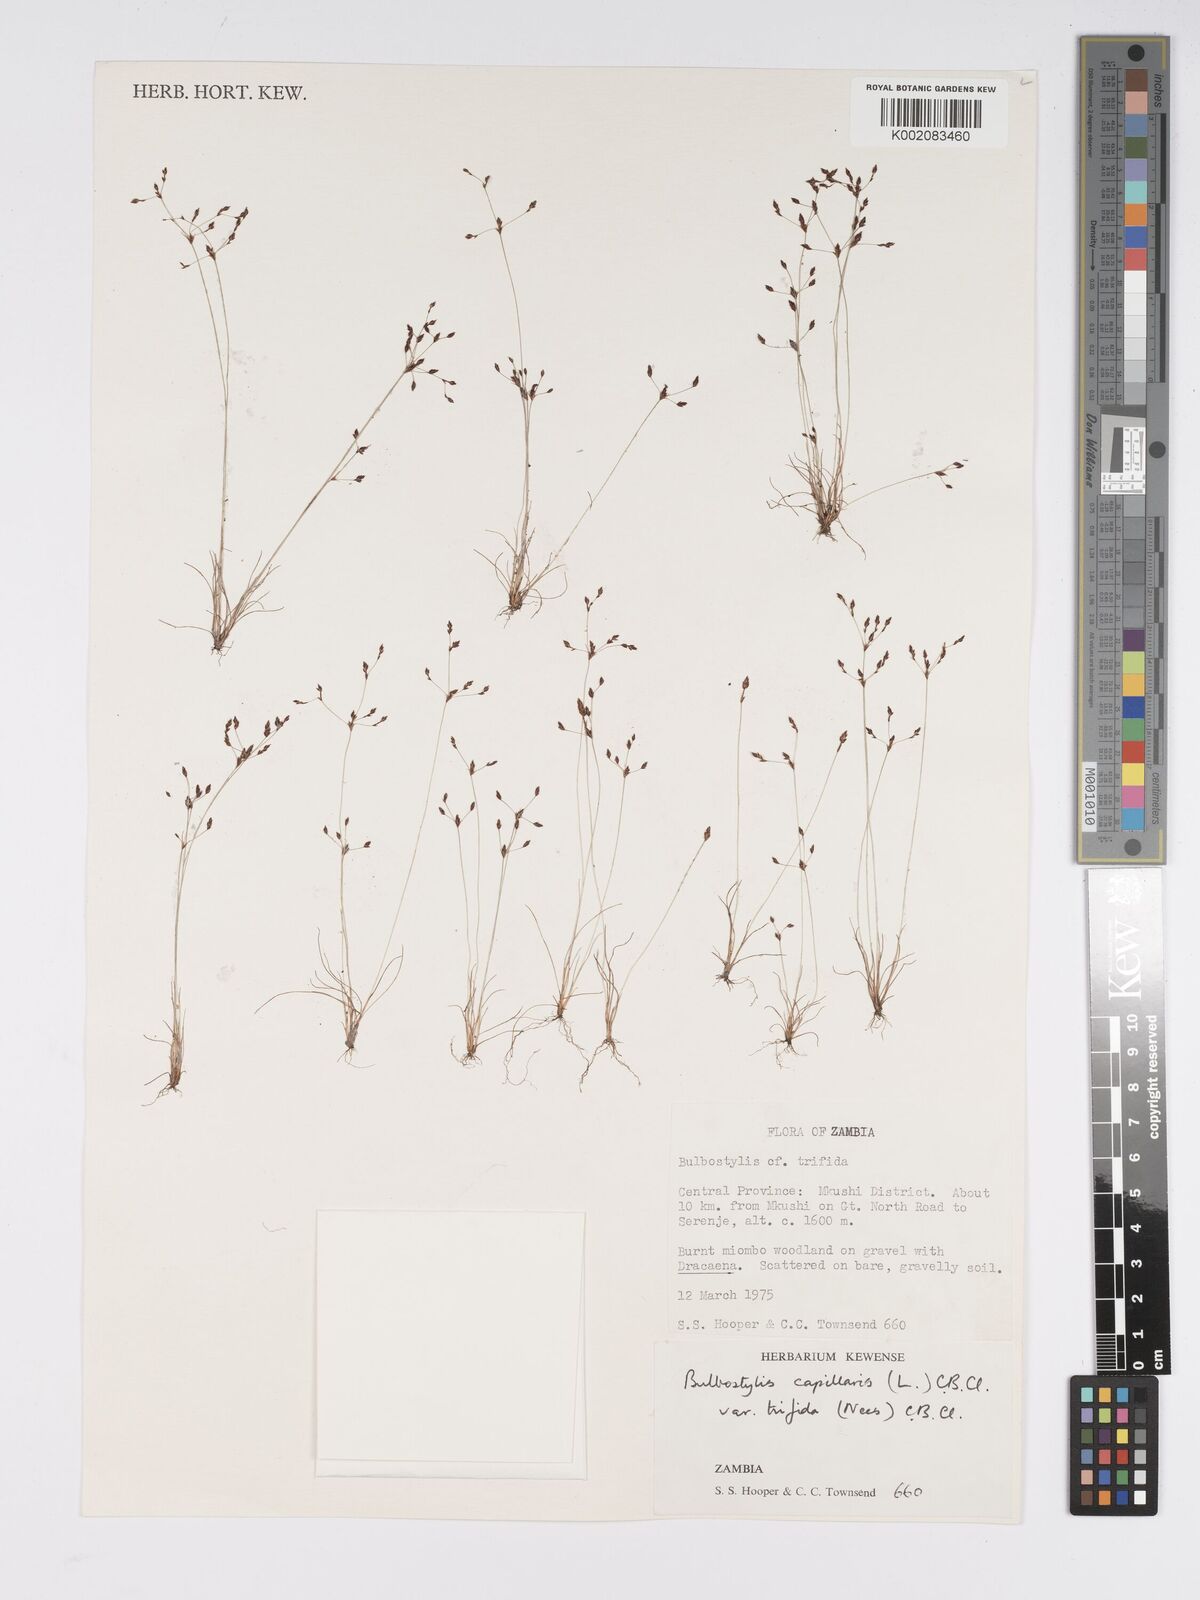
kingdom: Plantae
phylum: Tracheophyta
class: Liliopsida
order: Poales
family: Cyperaceae
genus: Bulbostylis
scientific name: Bulbostylis capillaris
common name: Densetuft hairsedge
